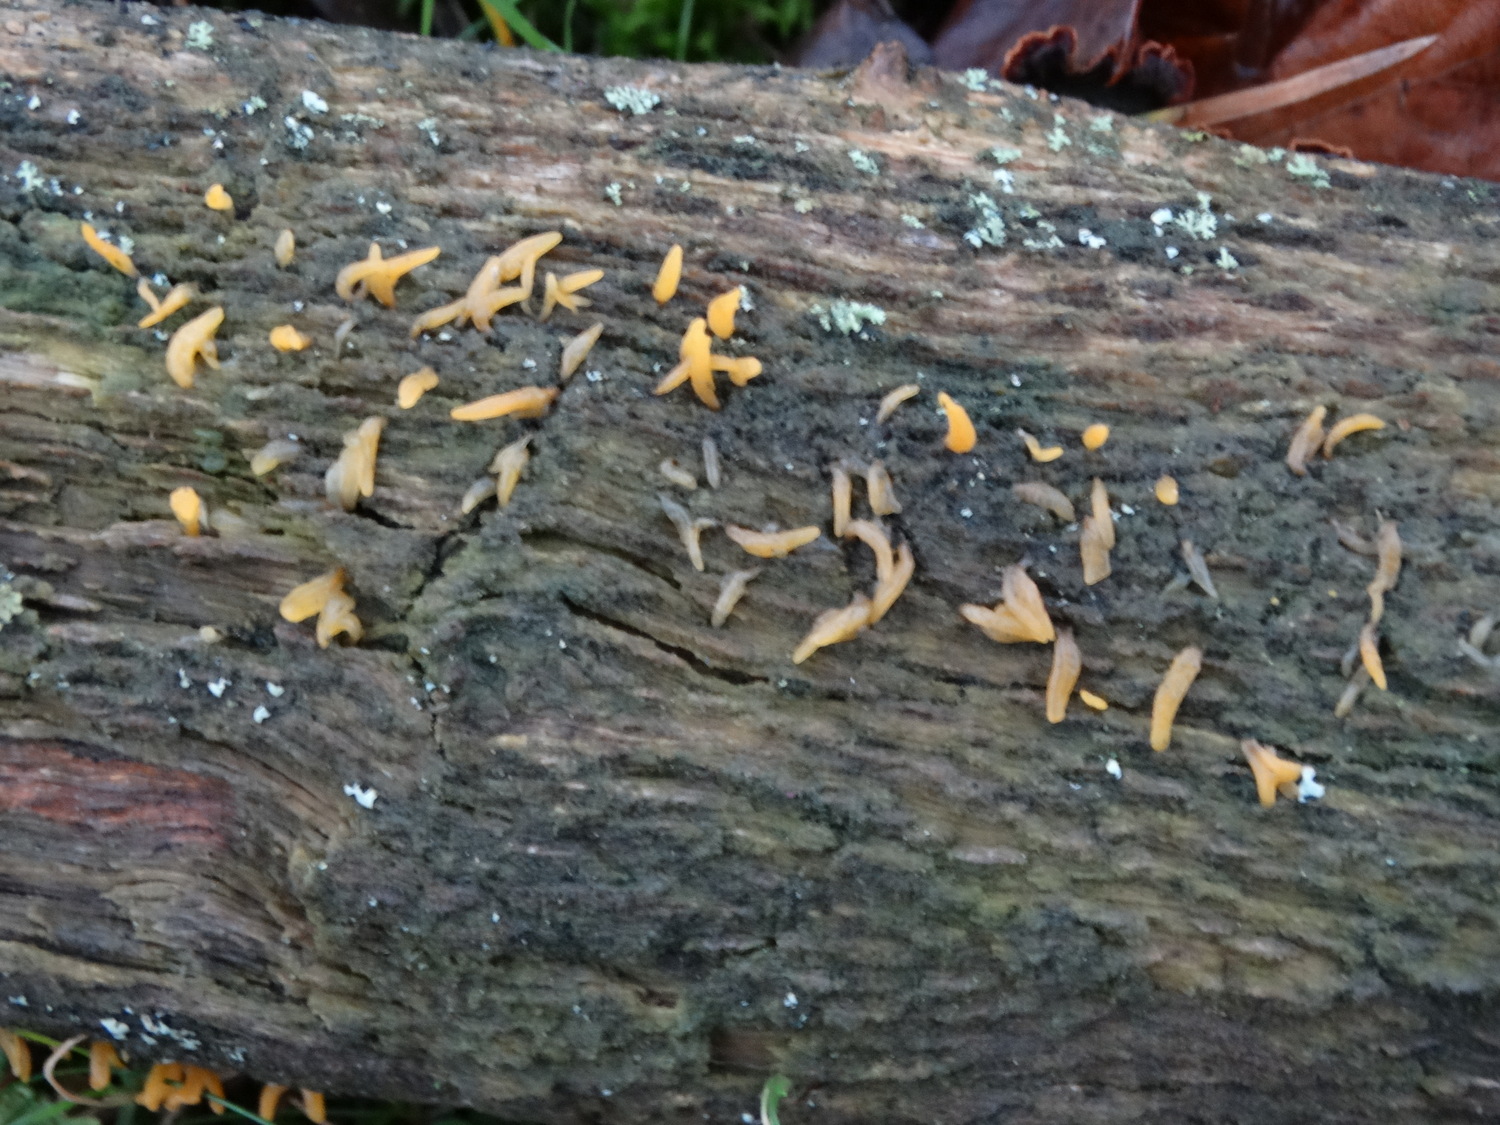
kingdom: Fungi
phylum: Basidiomycota
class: Dacrymycetes
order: Dacrymycetales
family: Dacrymycetaceae
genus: Calocera
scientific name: Calocera cornea
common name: liden guldgaffel
